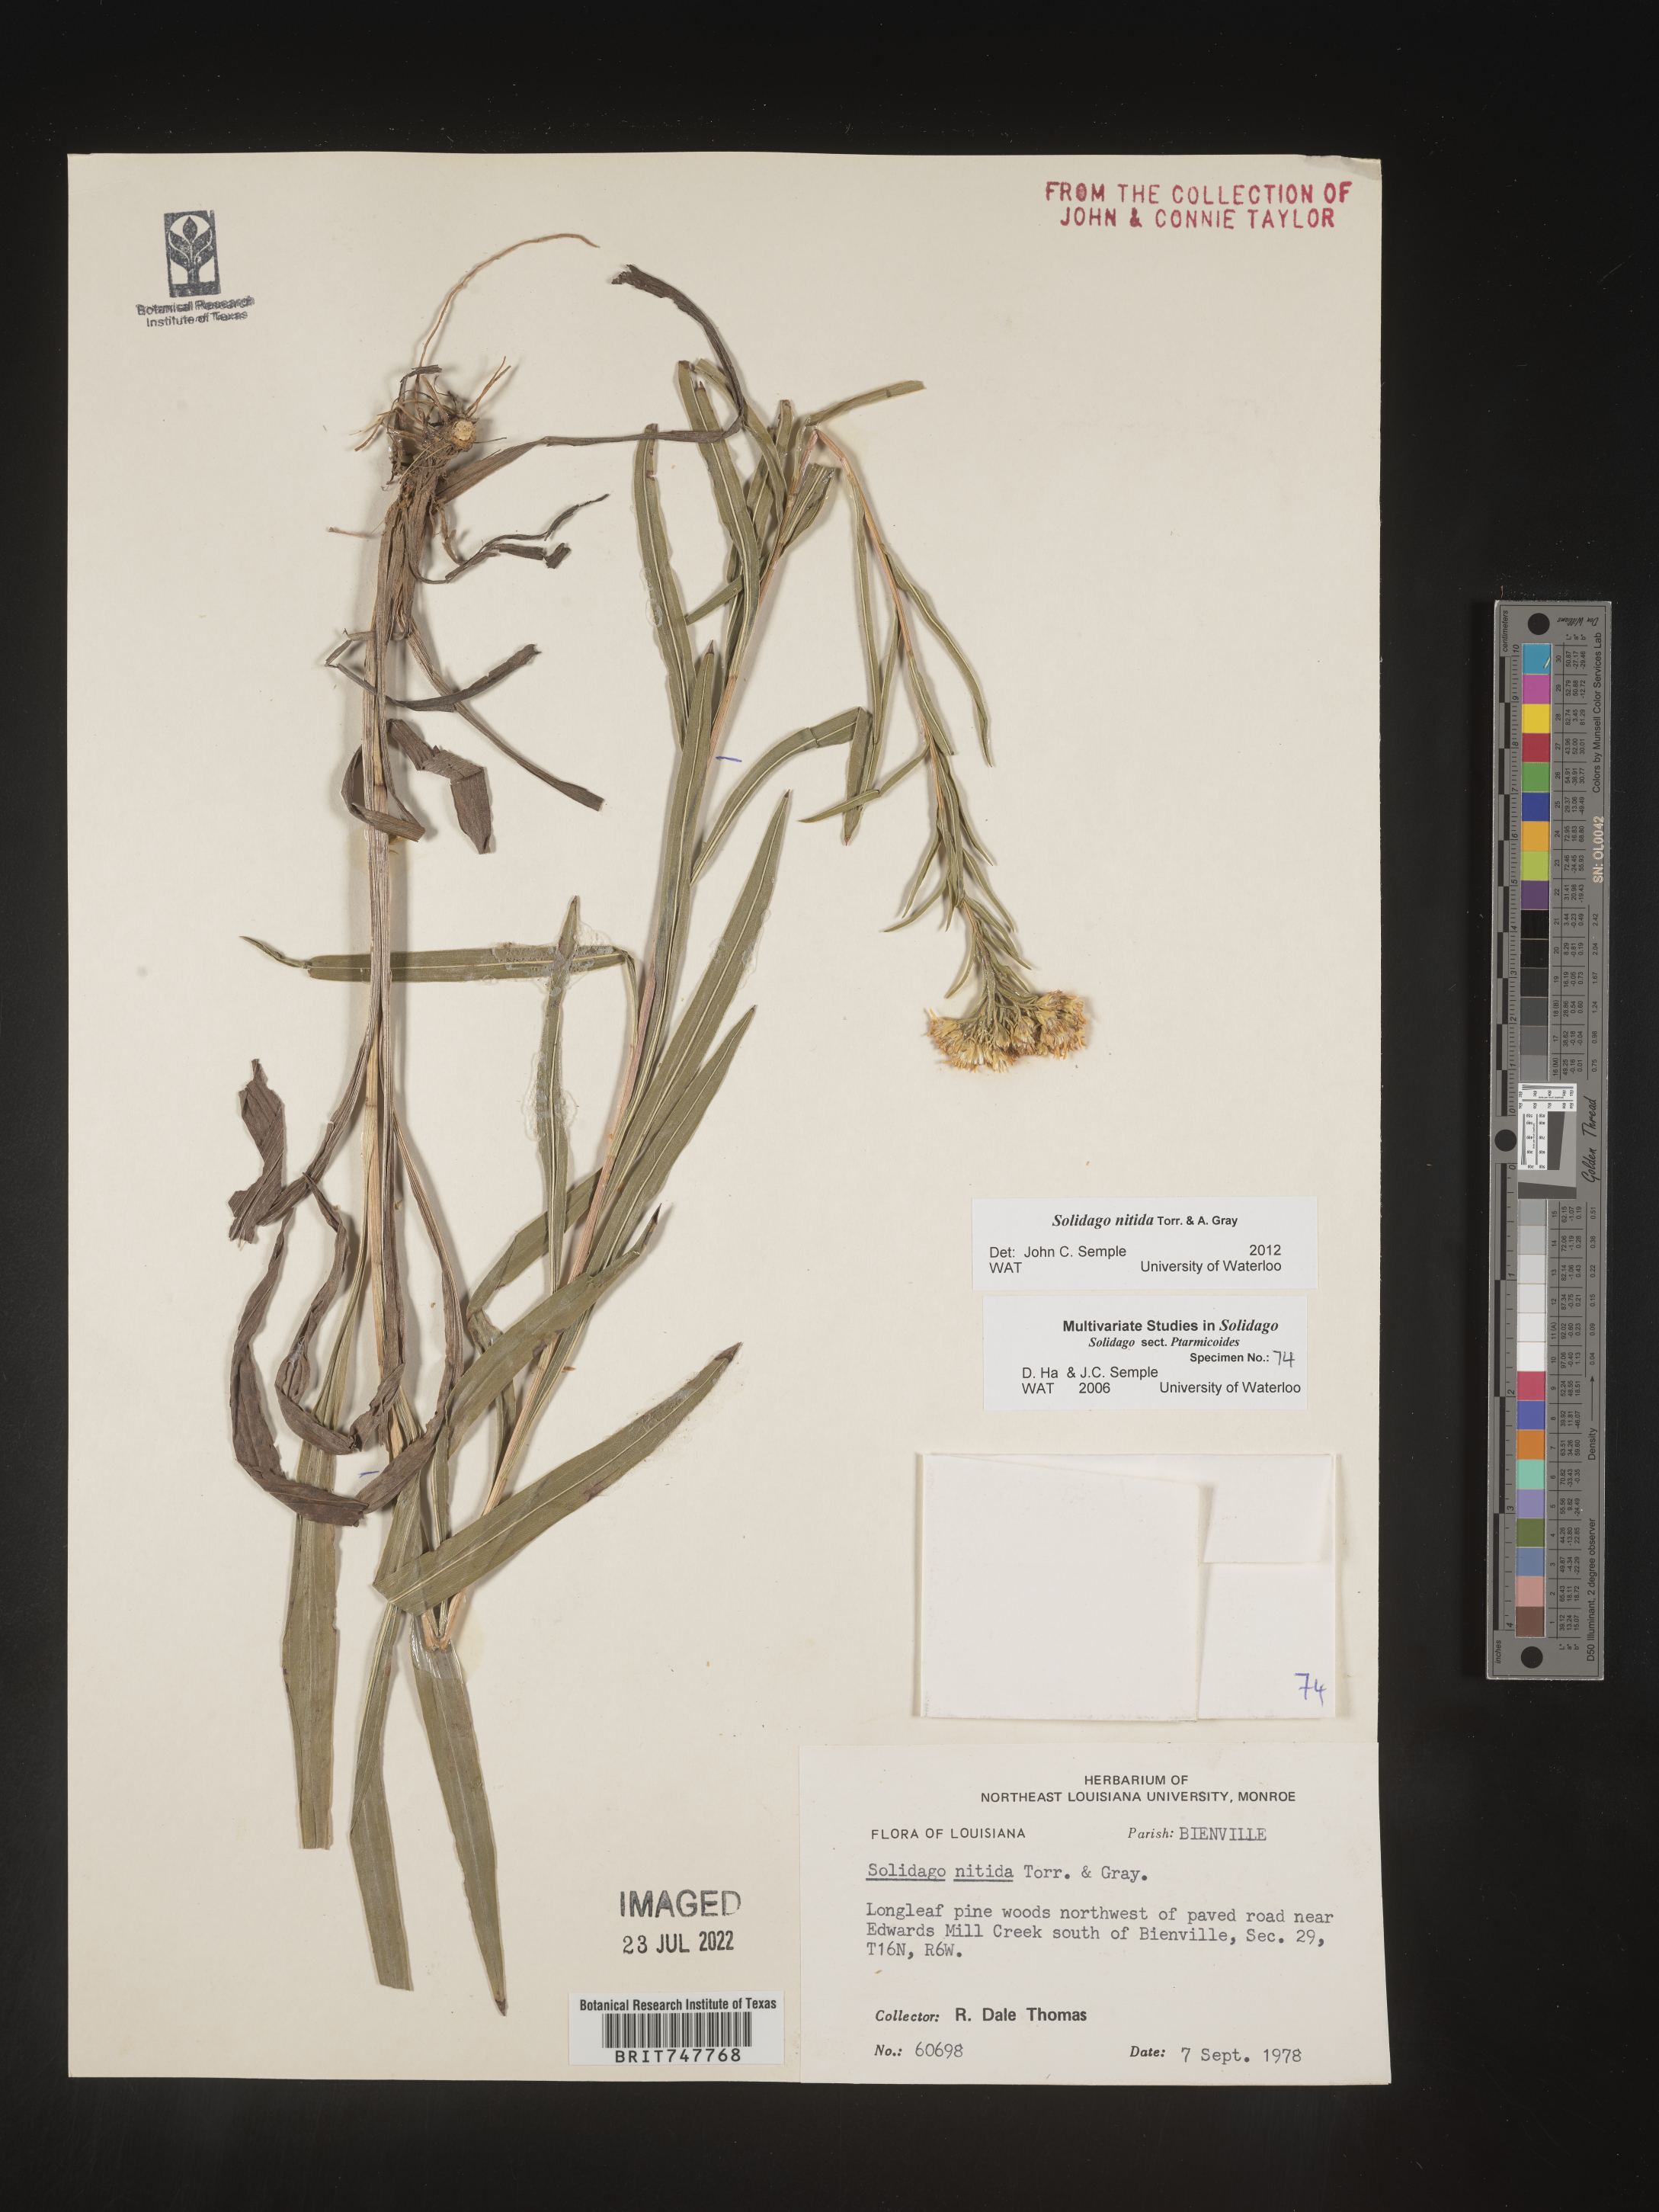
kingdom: Plantae
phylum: Tracheophyta
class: Magnoliopsida
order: Asterales
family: Asteraceae
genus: Solidago
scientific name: Solidago nitida
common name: Shiny goldenrod
